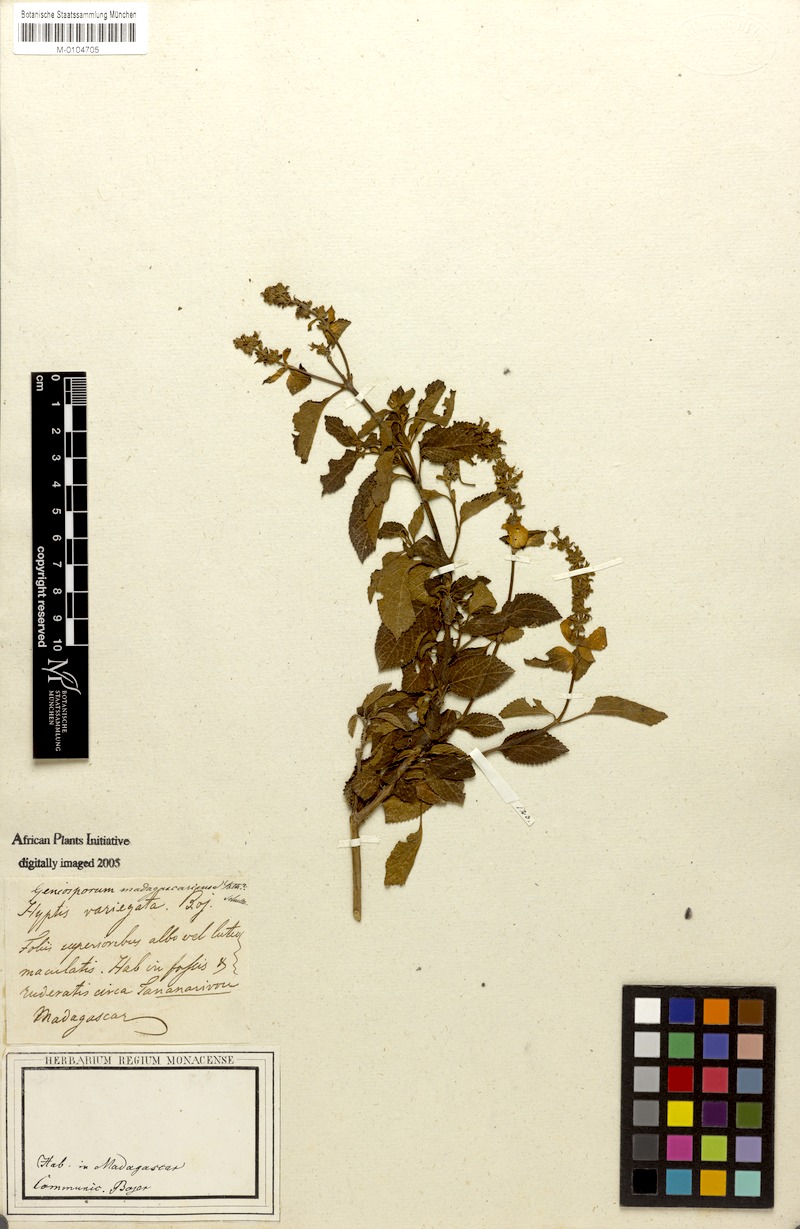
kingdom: Plantae
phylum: Tracheophyta
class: Magnoliopsida
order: Lamiales
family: Lamiaceae
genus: Platostoma
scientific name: Platostoma madagascariense
